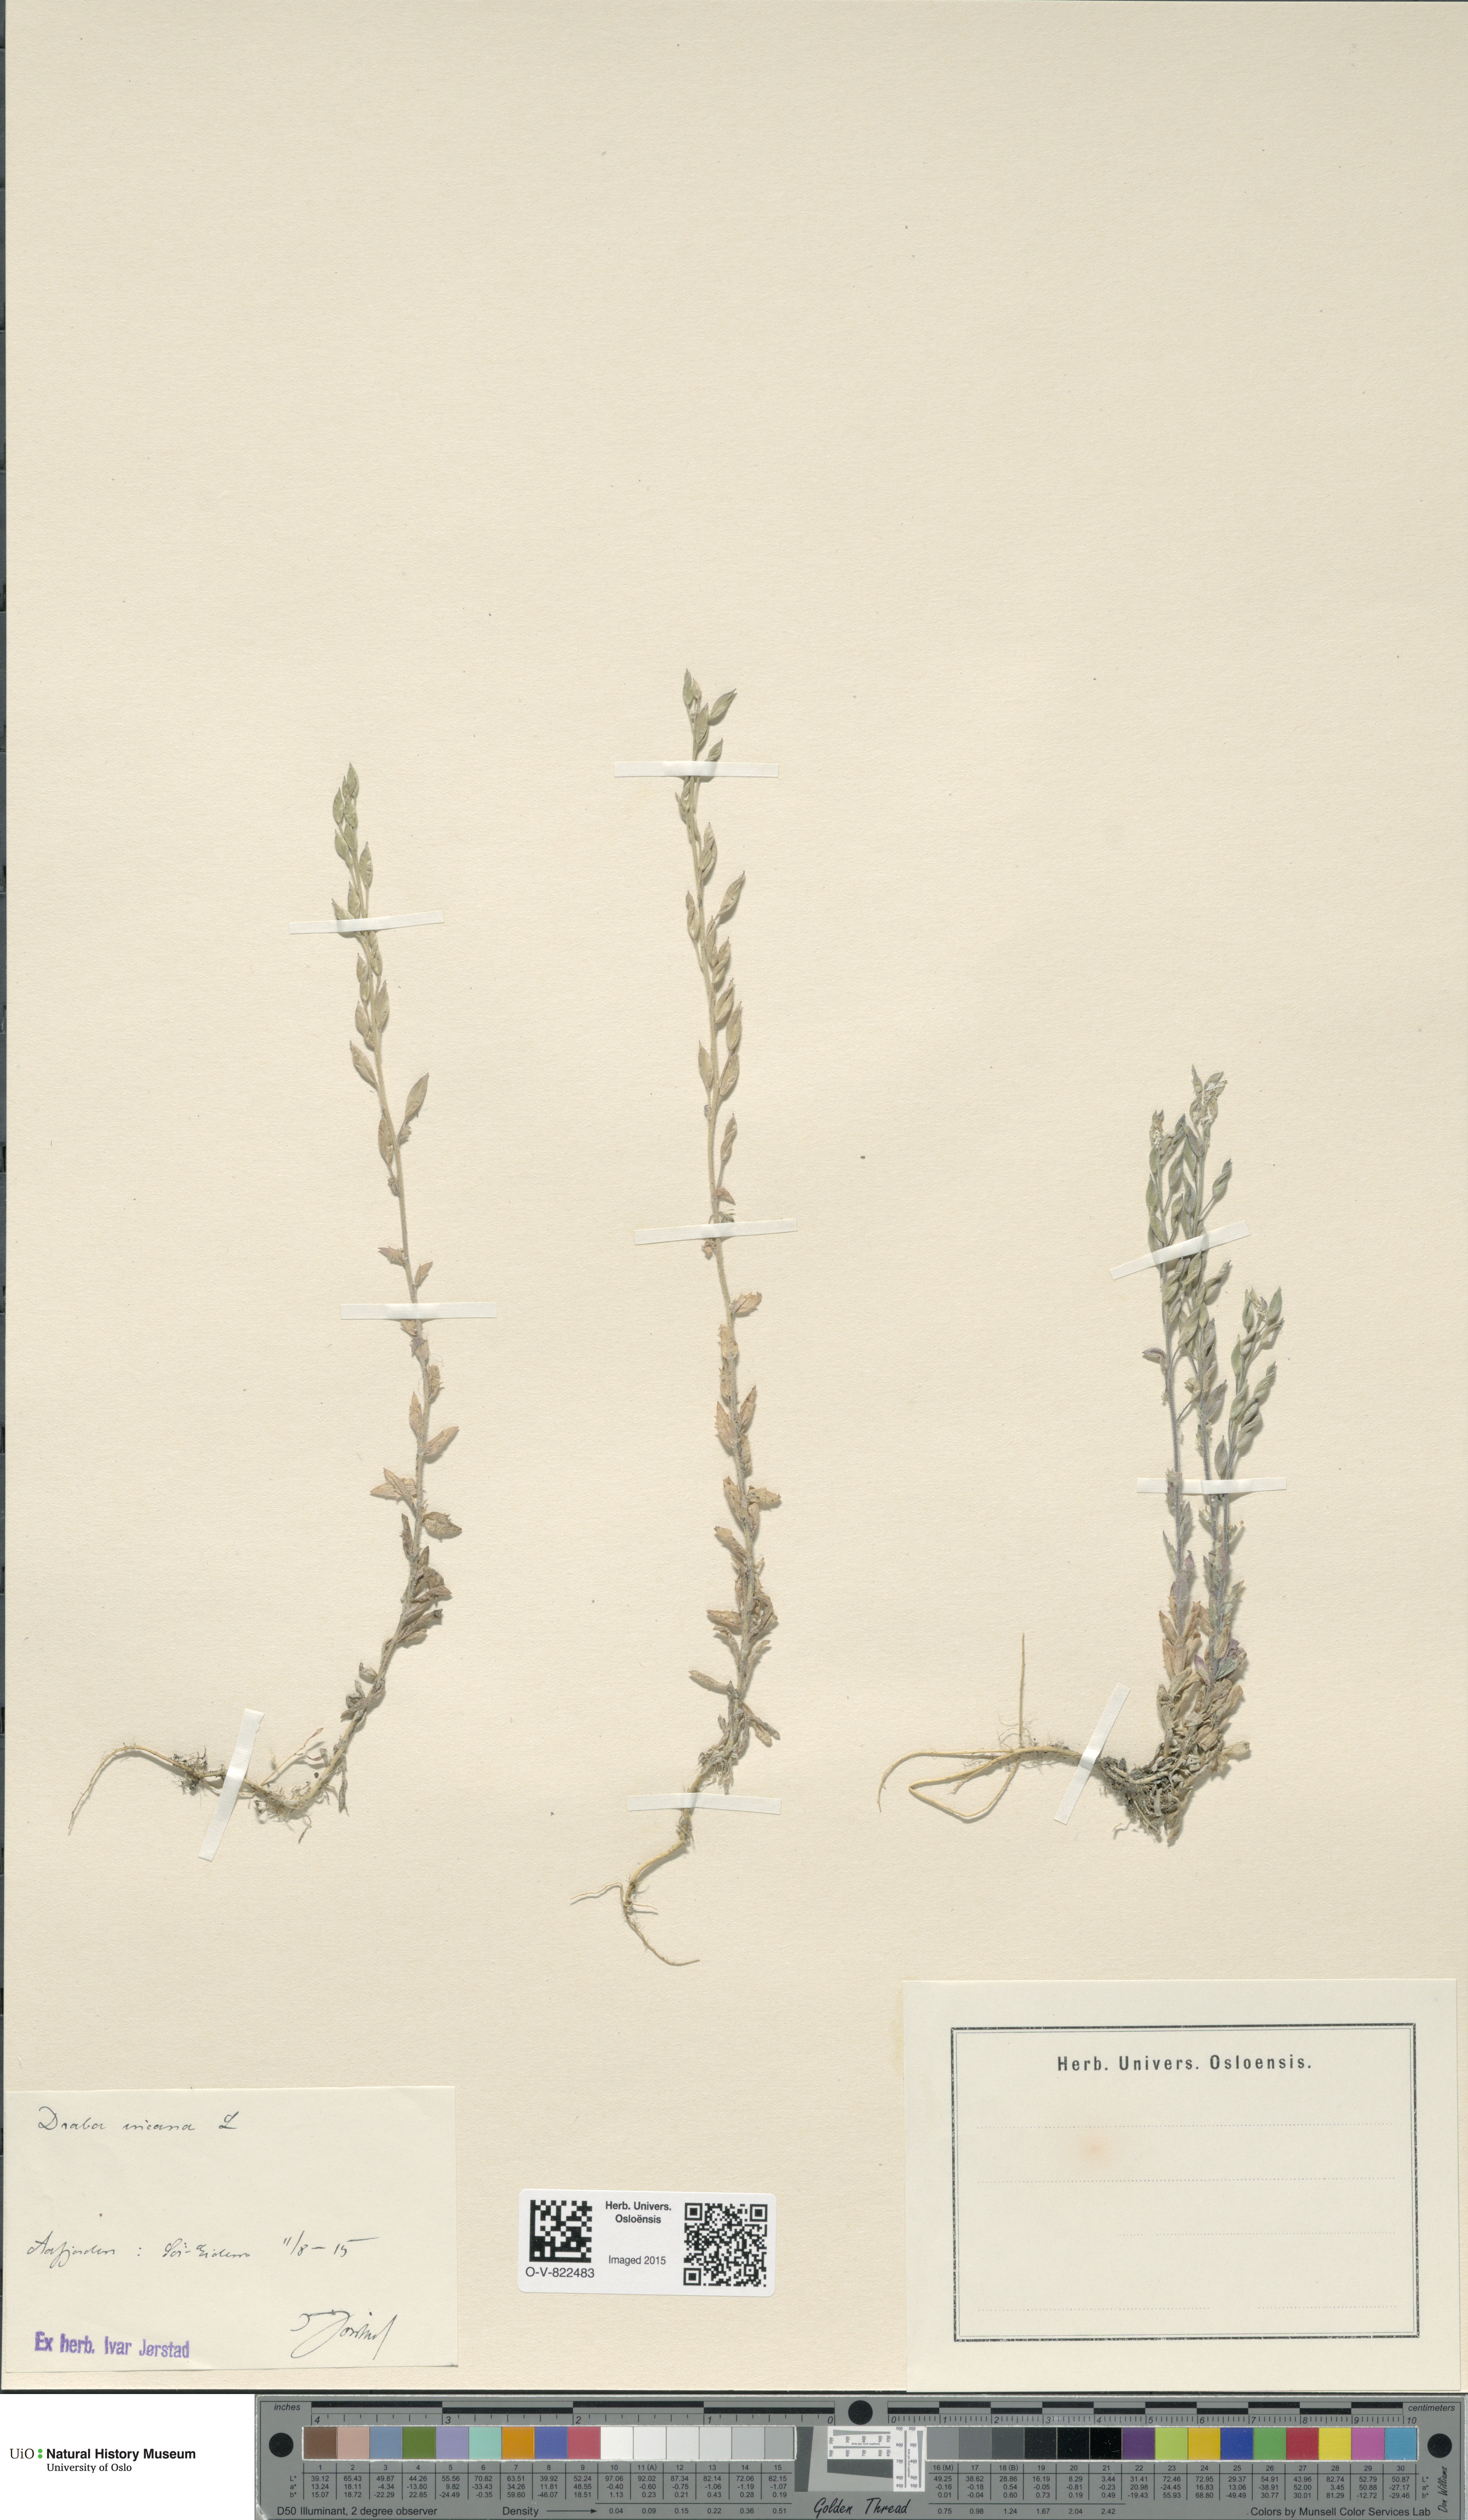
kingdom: Plantae
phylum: Tracheophyta
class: Magnoliopsida
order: Brassicales
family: Brassicaceae
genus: Draba
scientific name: Draba incana
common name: Hoary whitlow-grass
